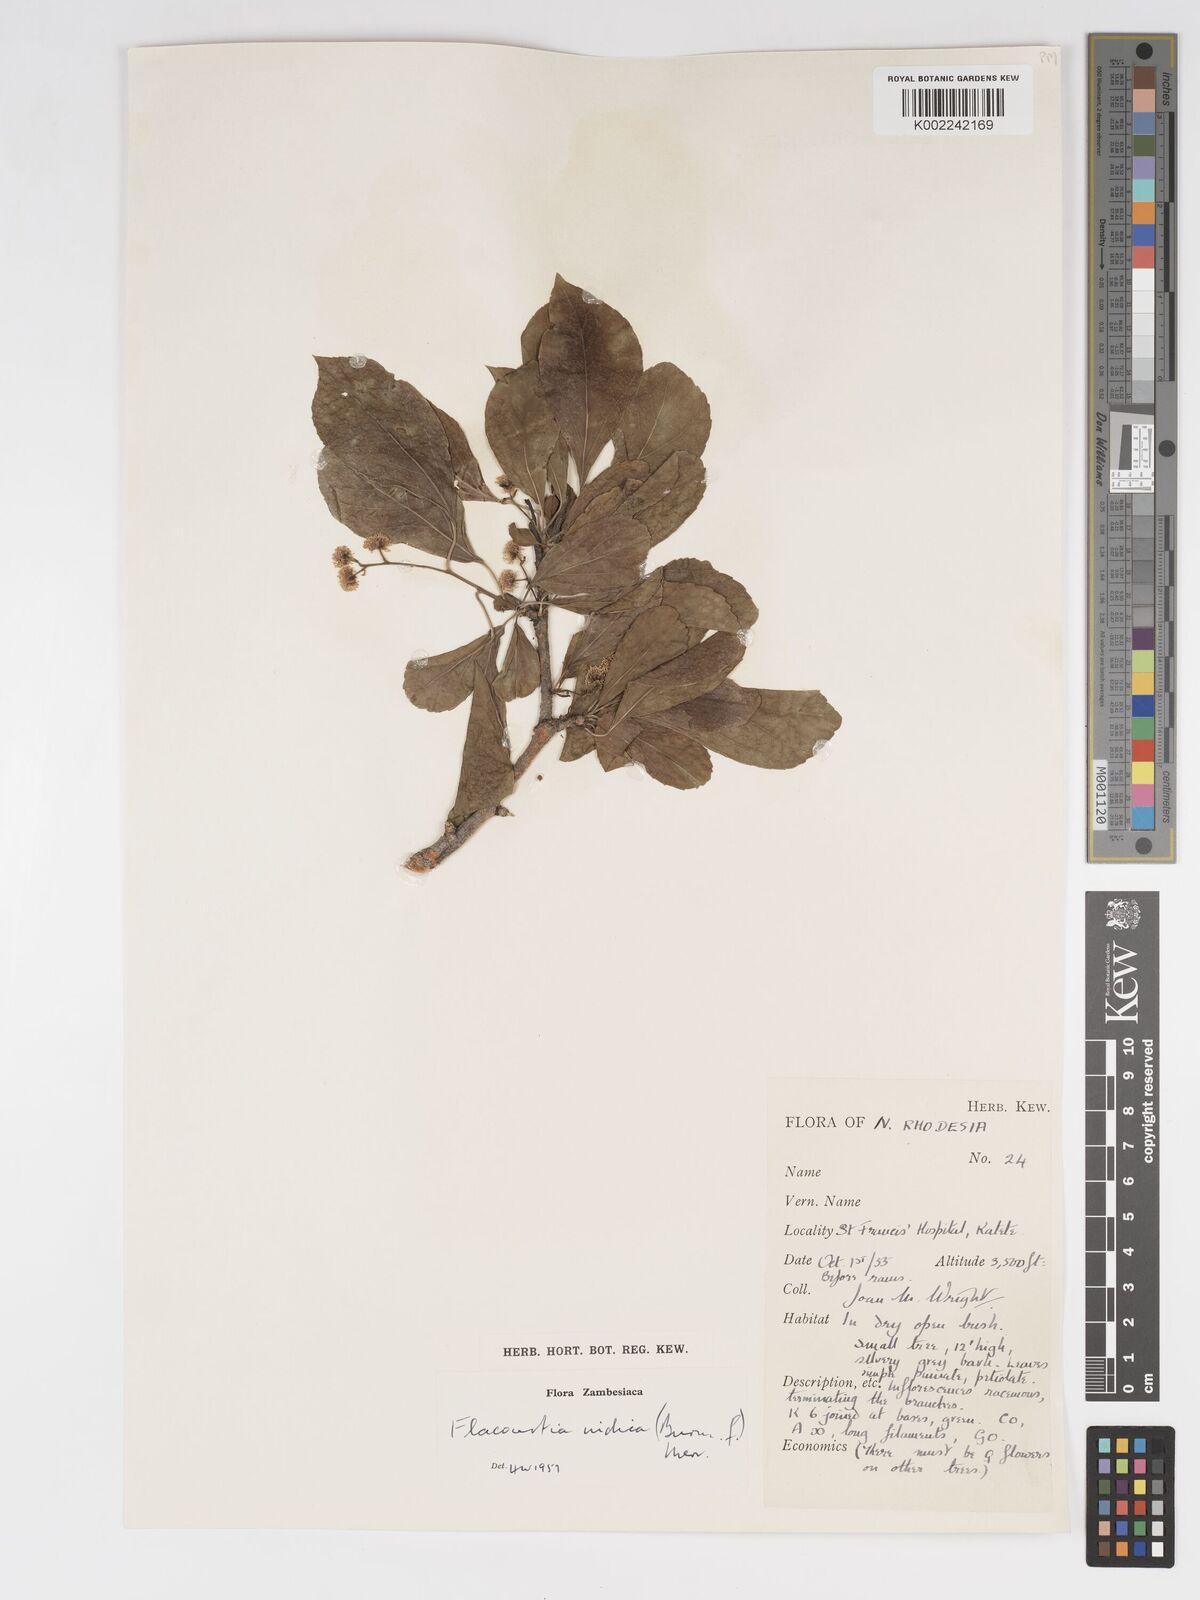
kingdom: Plantae
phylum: Tracheophyta
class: Magnoliopsida
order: Malpighiales
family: Salicaceae
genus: Flacourtia
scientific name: Flacourtia indica
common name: Governor's plum
